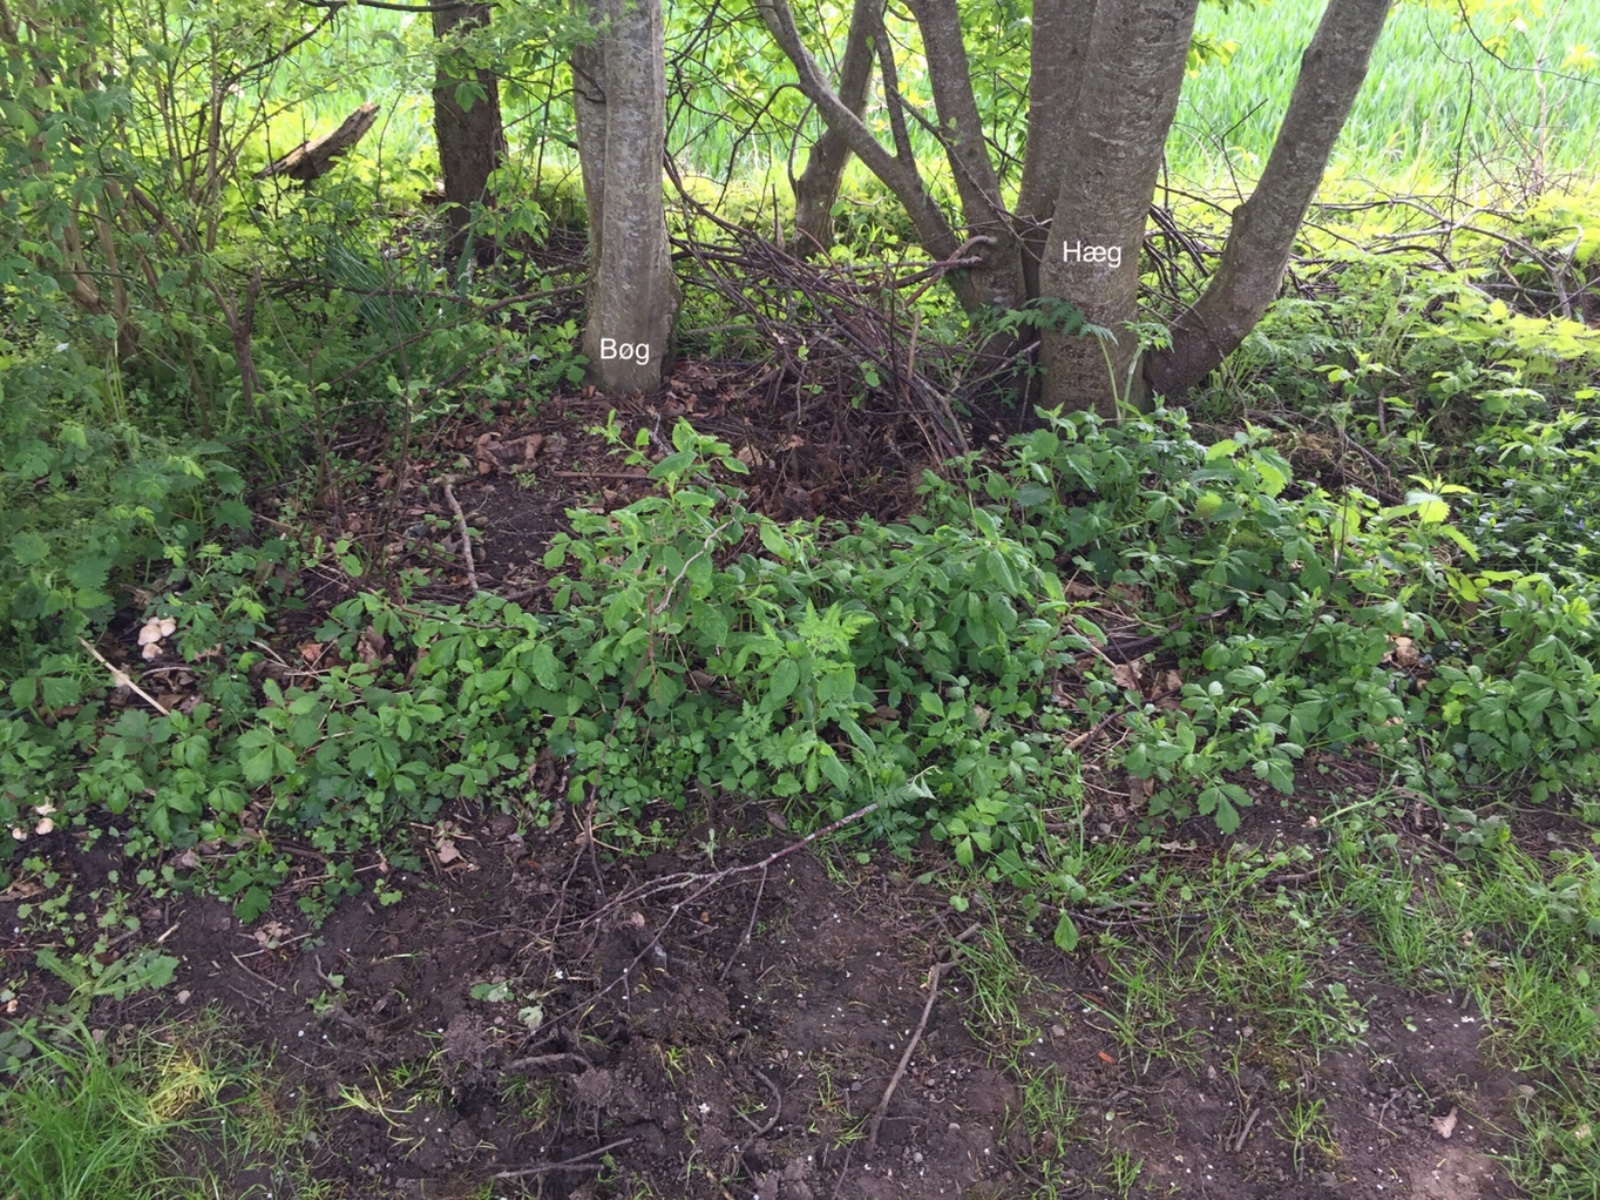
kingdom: Fungi
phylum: Basidiomycota
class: Agaricomycetes
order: Agaricales
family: Lyophyllaceae
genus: Calocybe
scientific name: Calocybe gambosa
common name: vårmusseron
